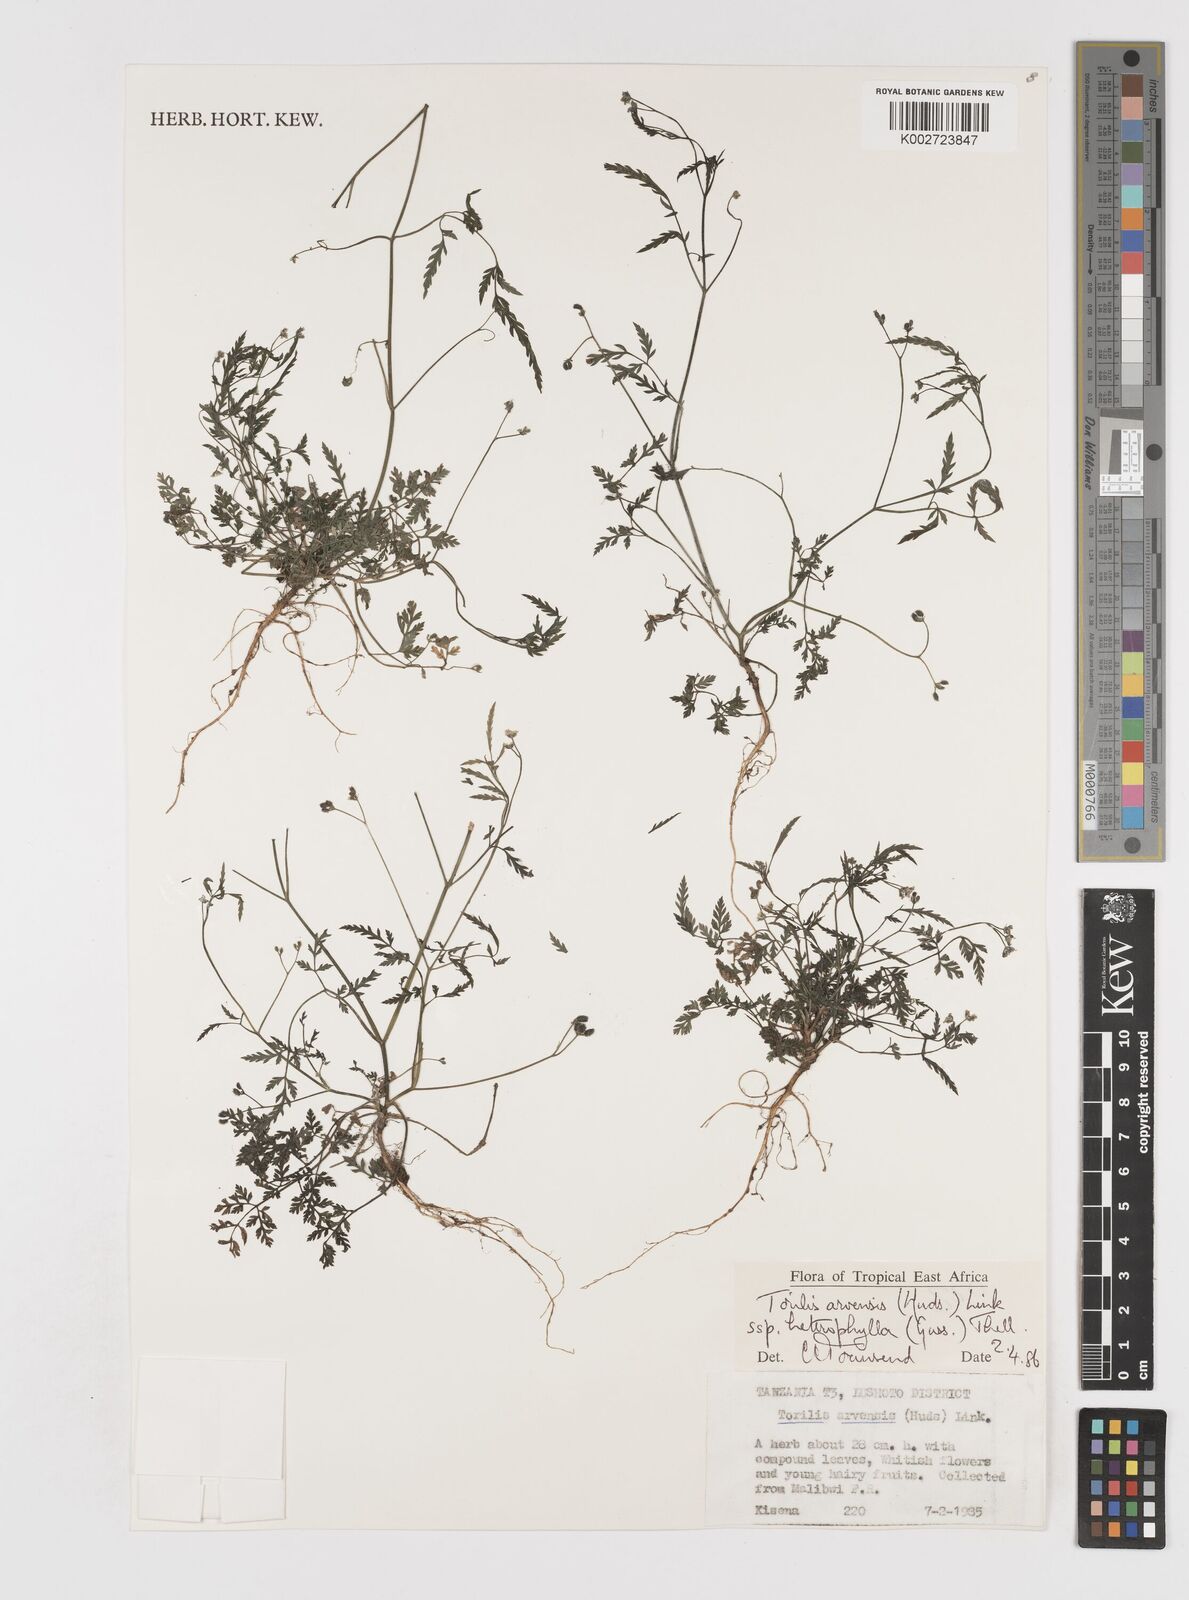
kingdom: Plantae
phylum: Tracheophyta
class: Magnoliopsida
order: Apiales
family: Apiaceae
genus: Torilis
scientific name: Torilis arvensis
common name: Spreading hedge-parsley
